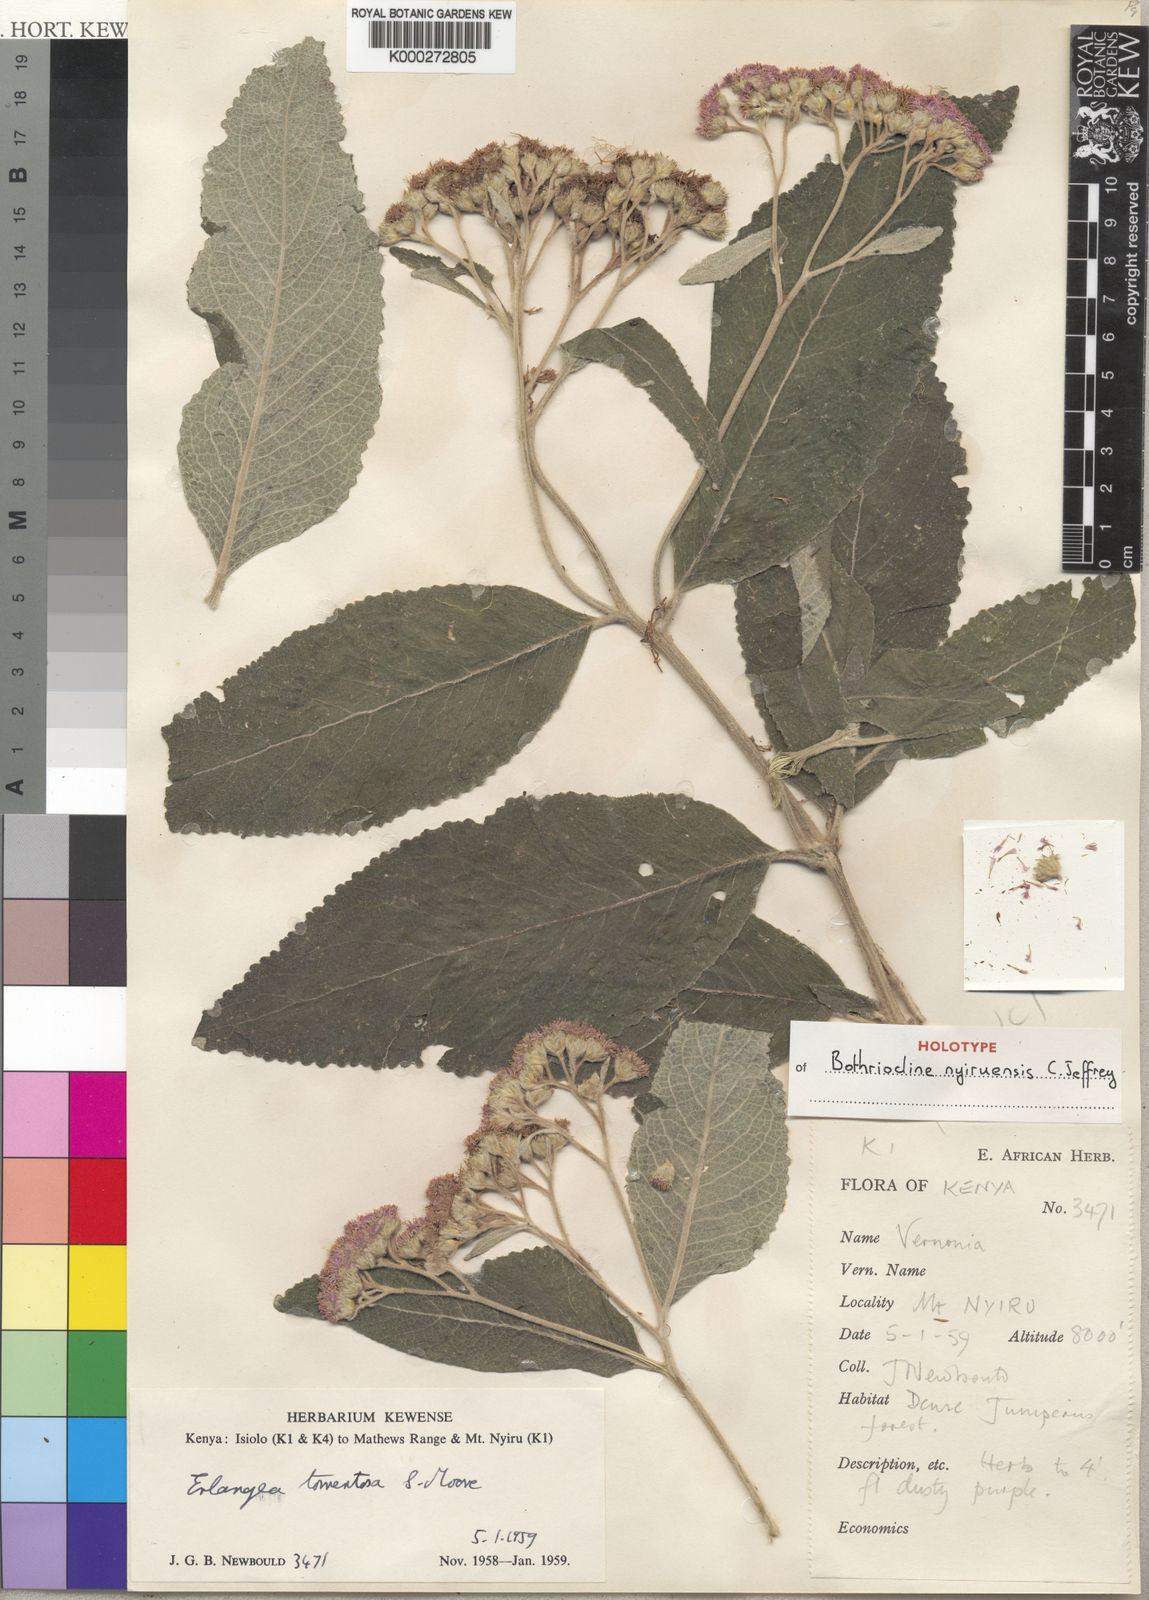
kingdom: Plantae
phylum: Tracheophyta
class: Magnoliopsida
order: Asterales
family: Asteraceae
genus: Bothriocline
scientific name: Bothriocline nyiruensis
